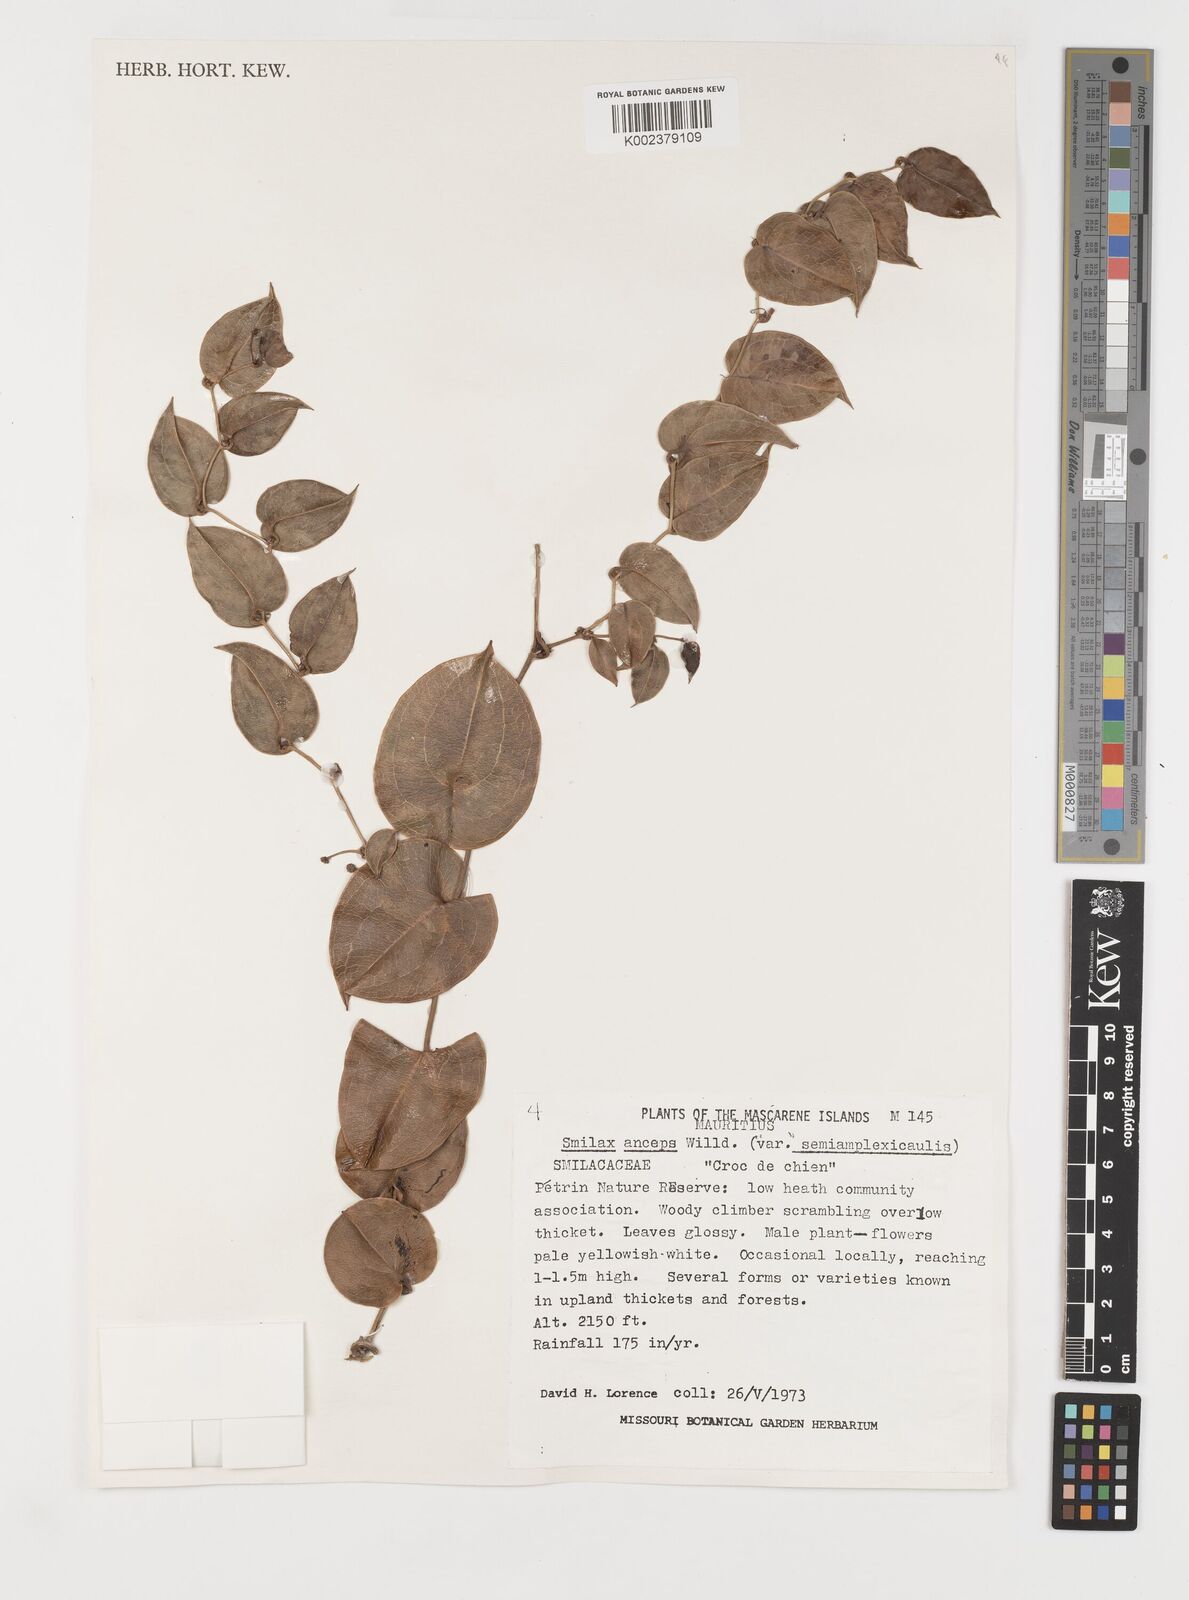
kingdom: Plantae
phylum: Tracheophyta
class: Liliopsida
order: Liliales
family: Smilacaceae
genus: Smilax
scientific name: Smilax anceps
